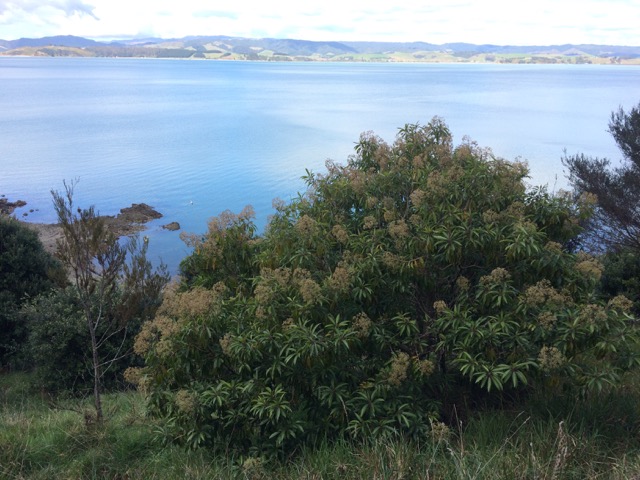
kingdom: Plantae
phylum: Tracheophyta
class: Magnoliopsida
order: Lamiales
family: Stilbaceae
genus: Nuxia
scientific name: Nuxia floribunda
